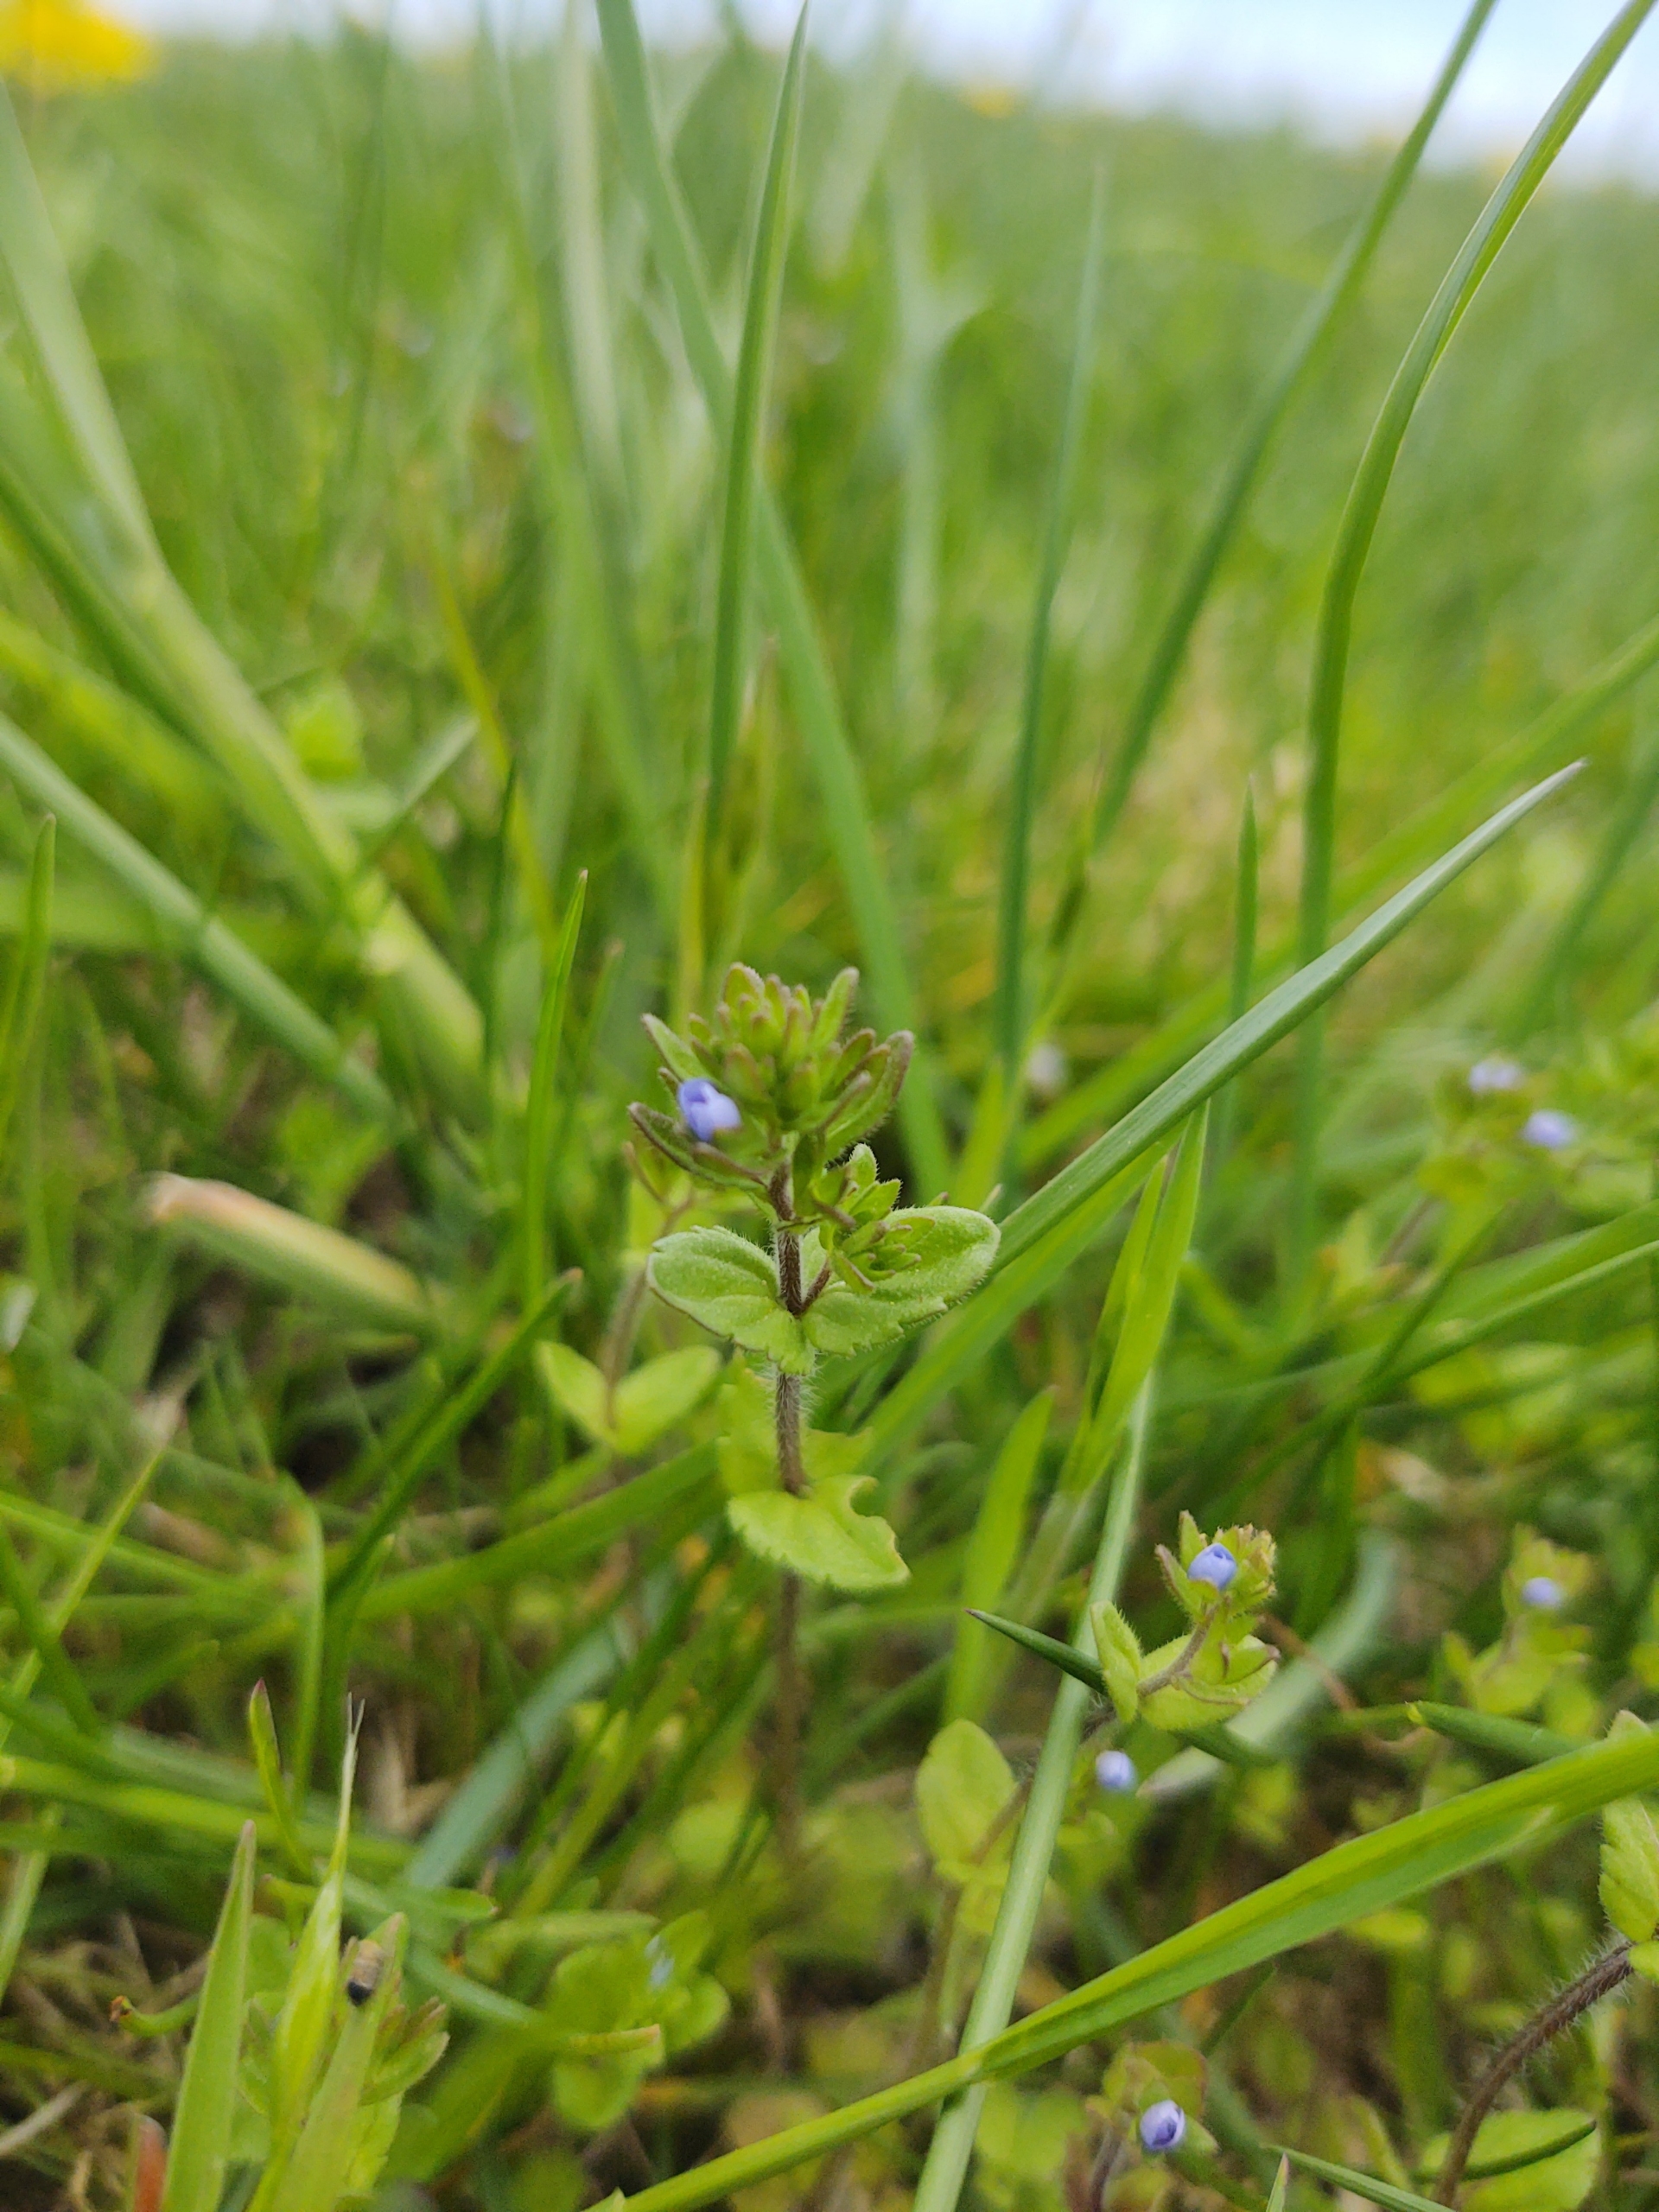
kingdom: Plantae
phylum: Tracheophyta
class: Magnoliopsida
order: Lamiales
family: Plantaginaceae
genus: Veronica
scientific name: Veronica arvensis
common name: Mark-ærenpris
